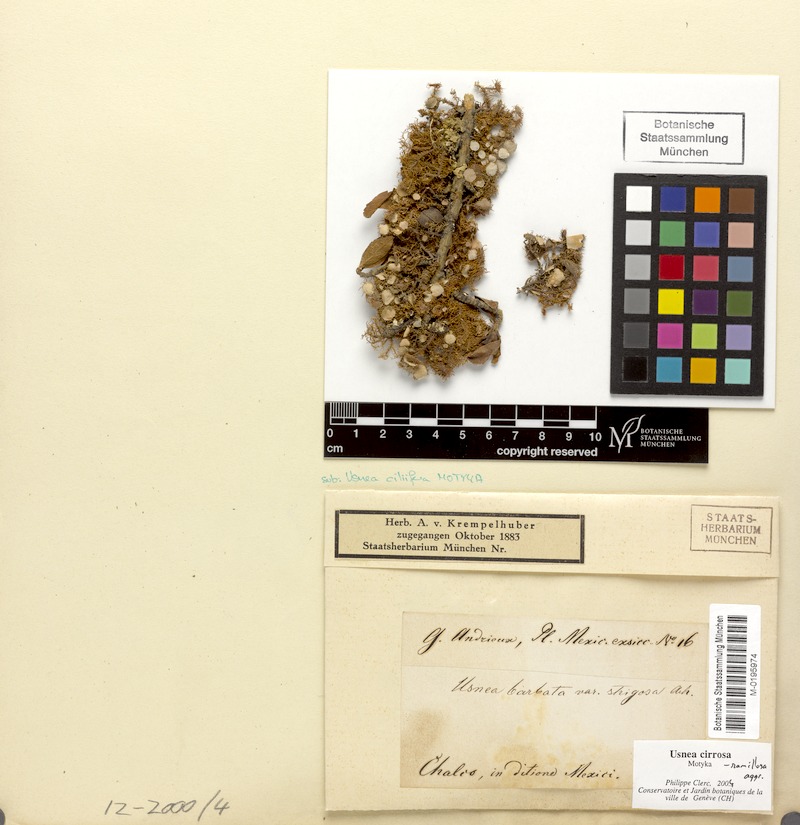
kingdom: Fungi
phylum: Ascomycota
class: Lecanoromycetes
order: Lecanorales
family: Parmeliaceae
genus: Usnea
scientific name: Usnea cirrosa
